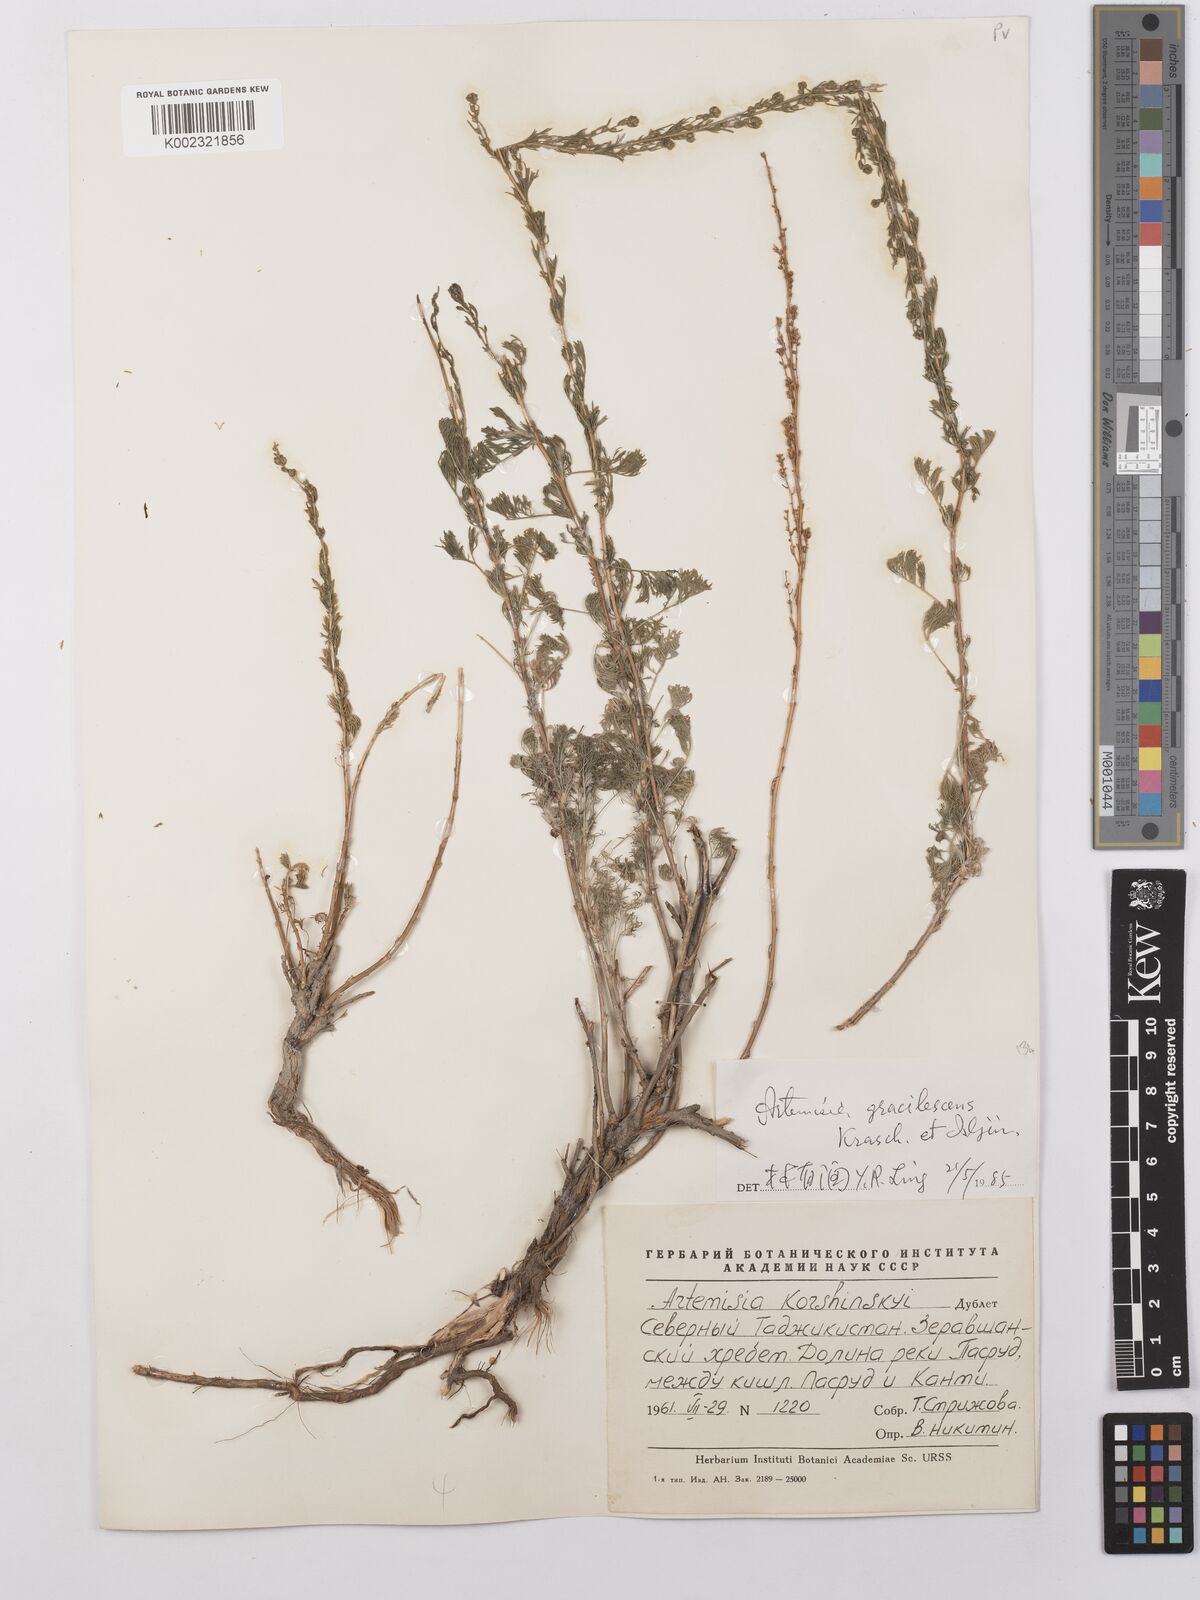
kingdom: Plantae
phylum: Tracheophyta
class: Magnoliopsida
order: Asterales
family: Asteraceae
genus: Artemisia
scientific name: Artemisia gracilescens
